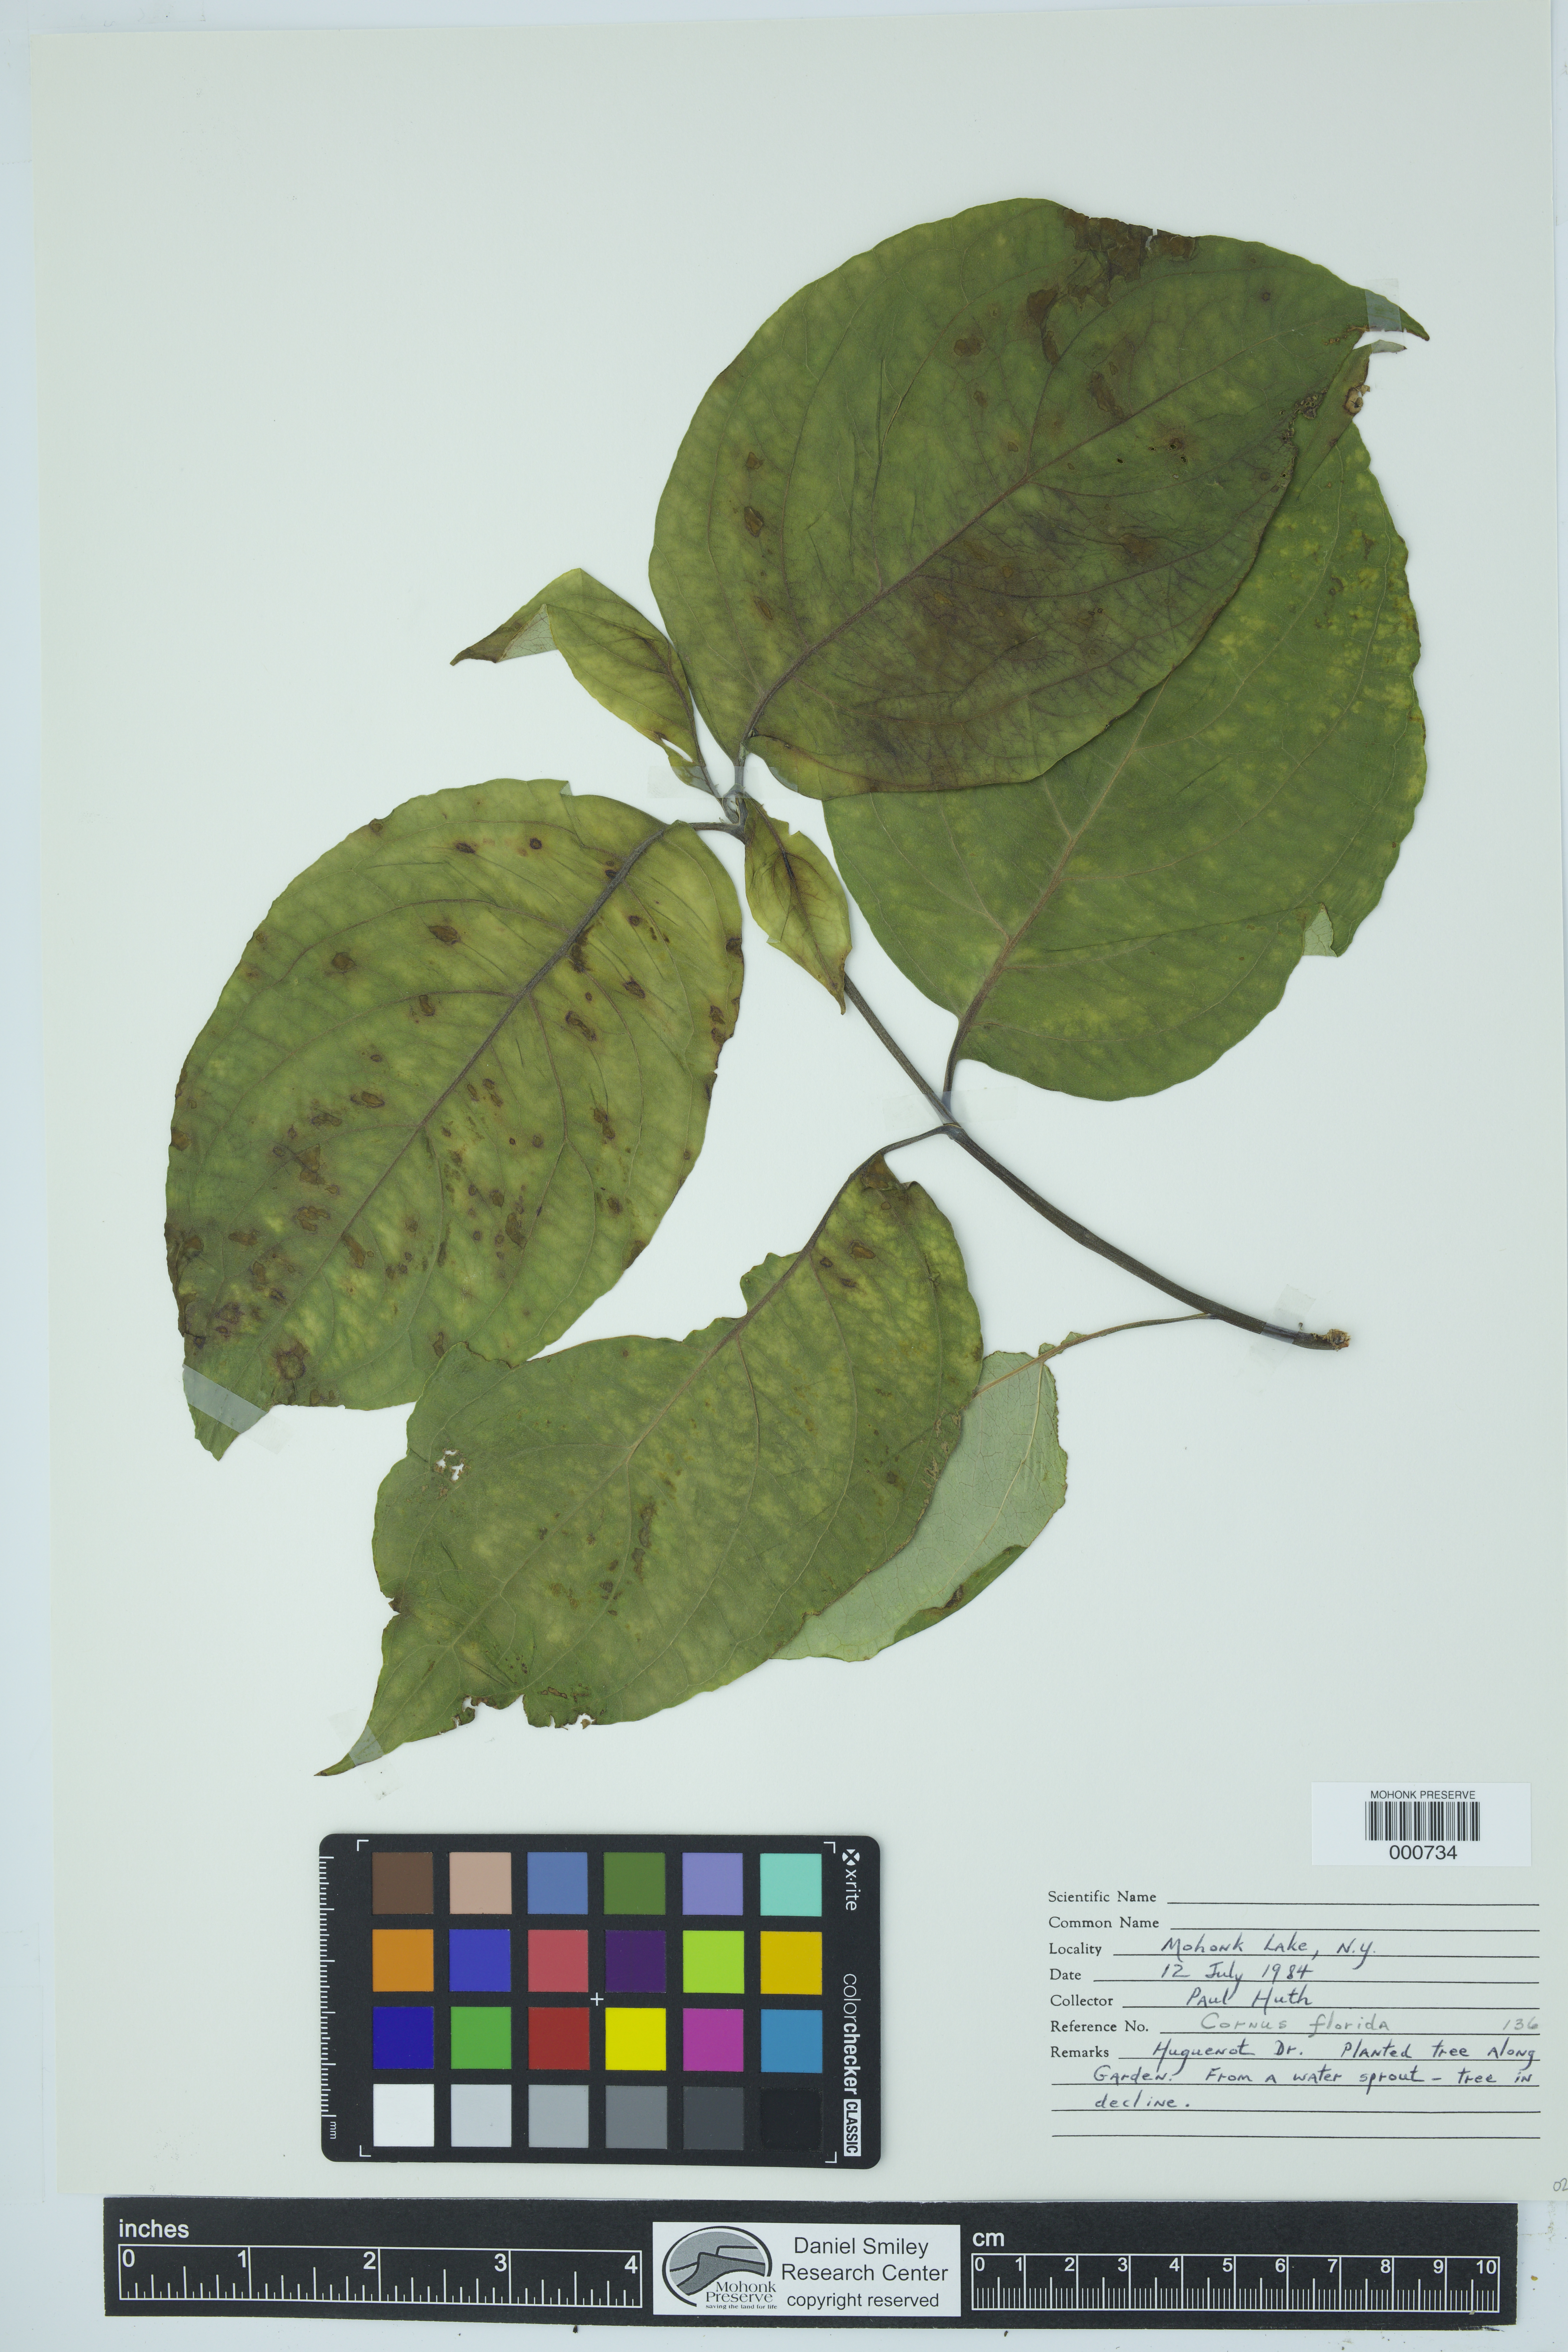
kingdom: Plantae
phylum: Tracheophyta
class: Magnoliopsida
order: Cornales
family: Cornaceae
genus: Cornus
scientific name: Cornus florida
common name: Flowering dogwood
